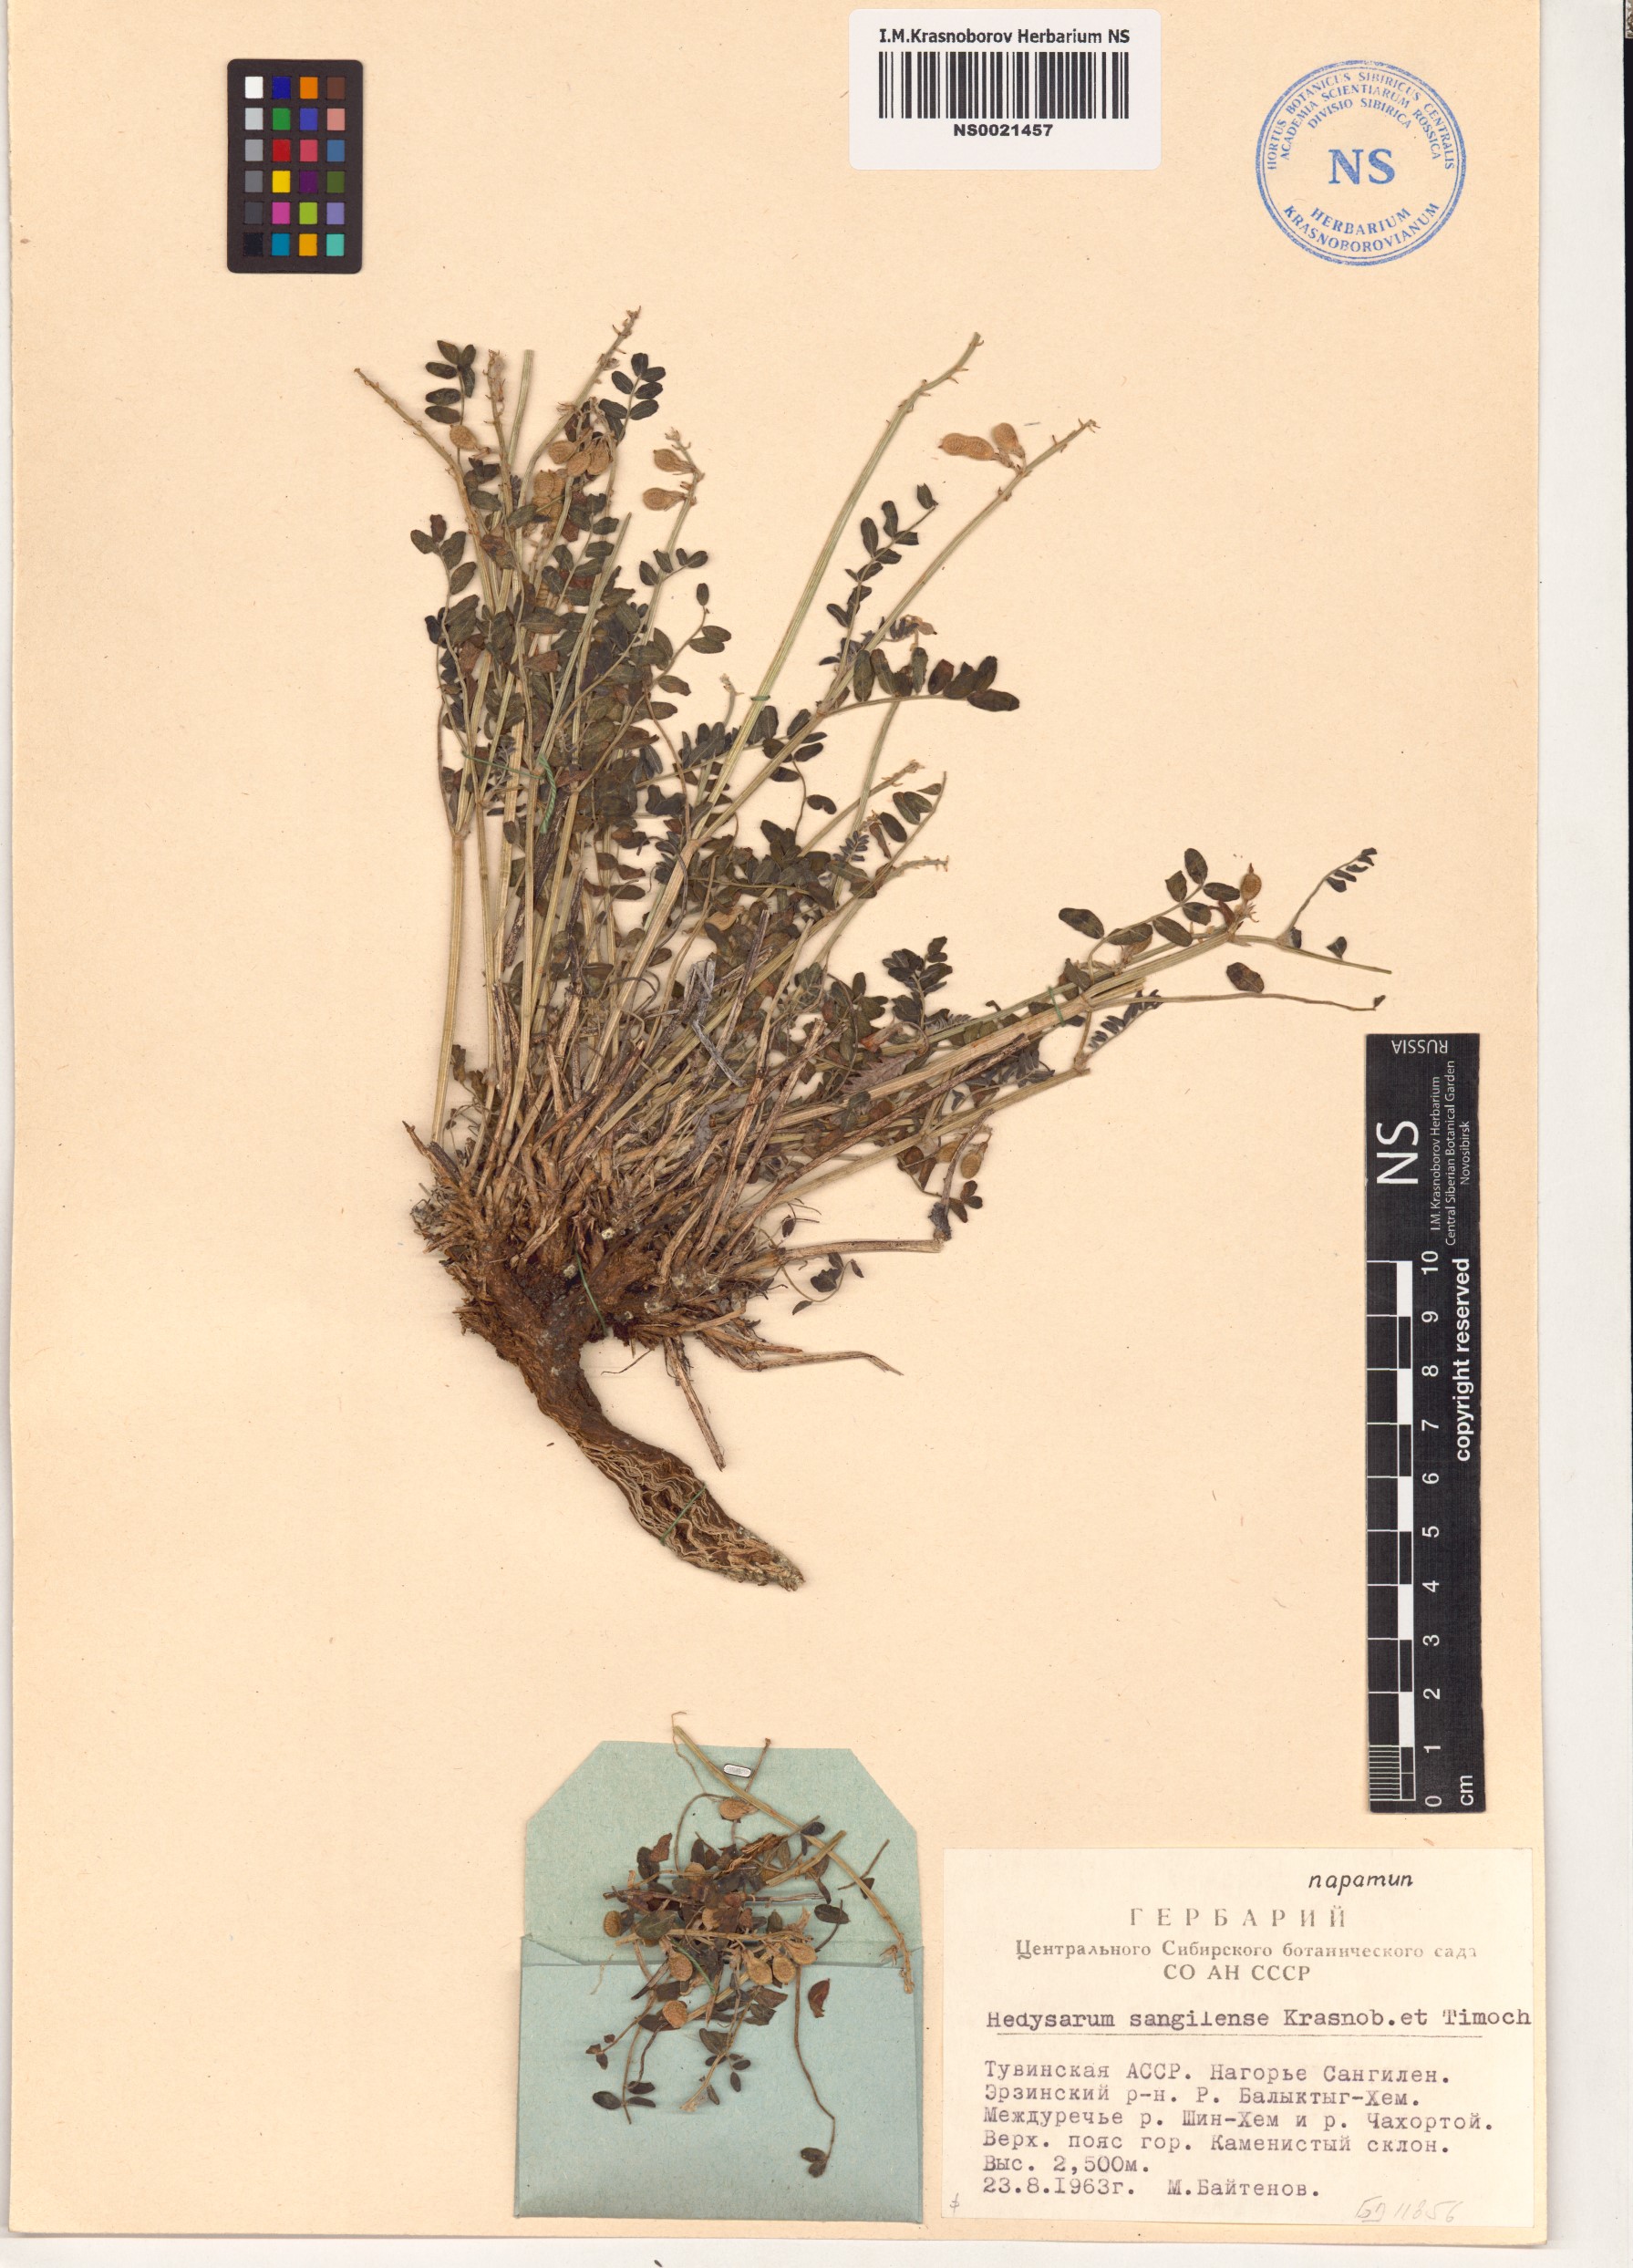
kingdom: Plantae
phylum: Tracheophyta
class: Magnoliopsida
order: Fabales
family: Fabaceae
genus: Hedysarum
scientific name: Hedysarum sangilense
